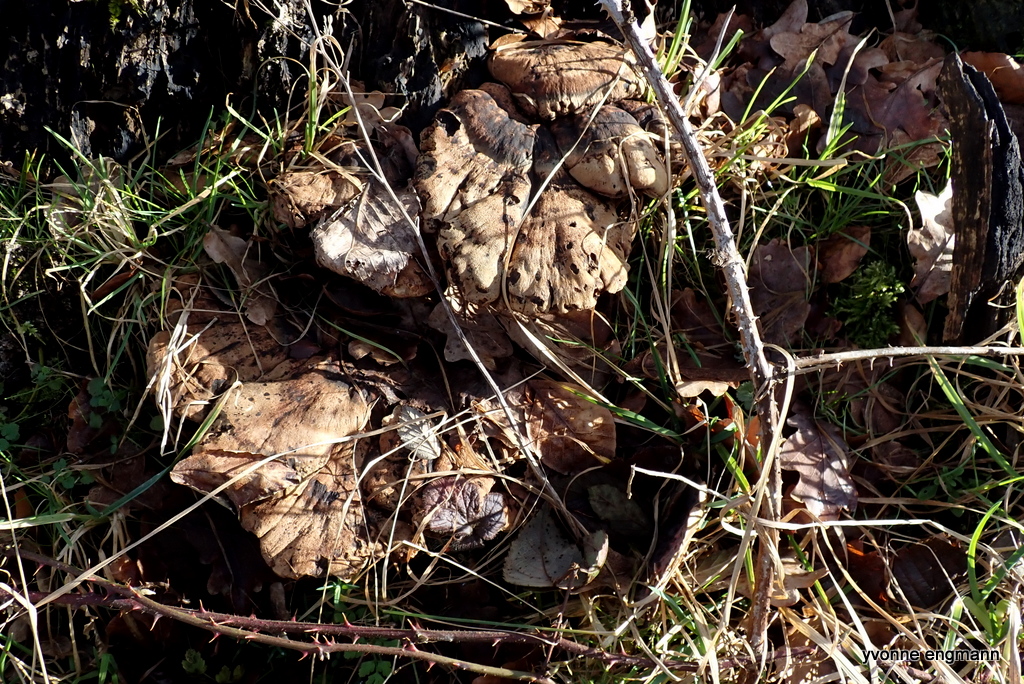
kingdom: Fungi
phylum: Basidiomycota
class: Agaricomycetes
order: Polyporales
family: Ischnodermataceae
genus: Ischnoderma
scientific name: Ischnoderma resinosum
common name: løv-tjæreporesvamp
